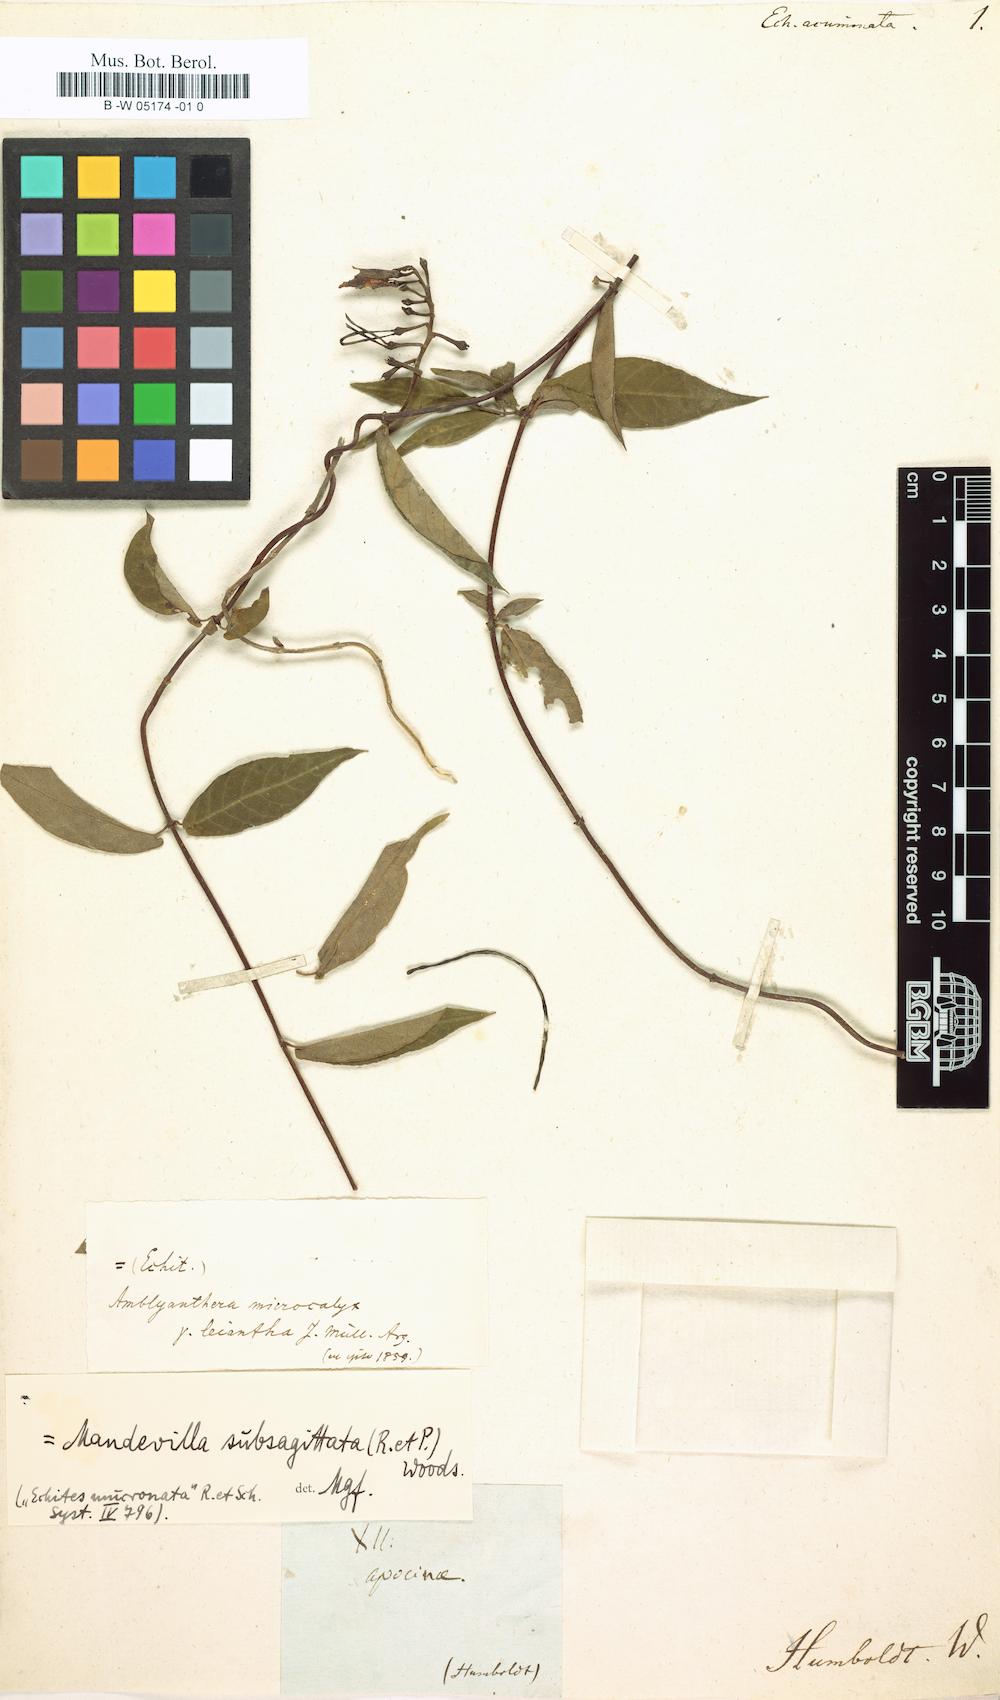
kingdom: Plantae
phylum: Tracheophyta
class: Magnoliopsida
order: Gentianales
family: Apocynaceae
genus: Mandevilla
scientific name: Mandevilla subsagittata
